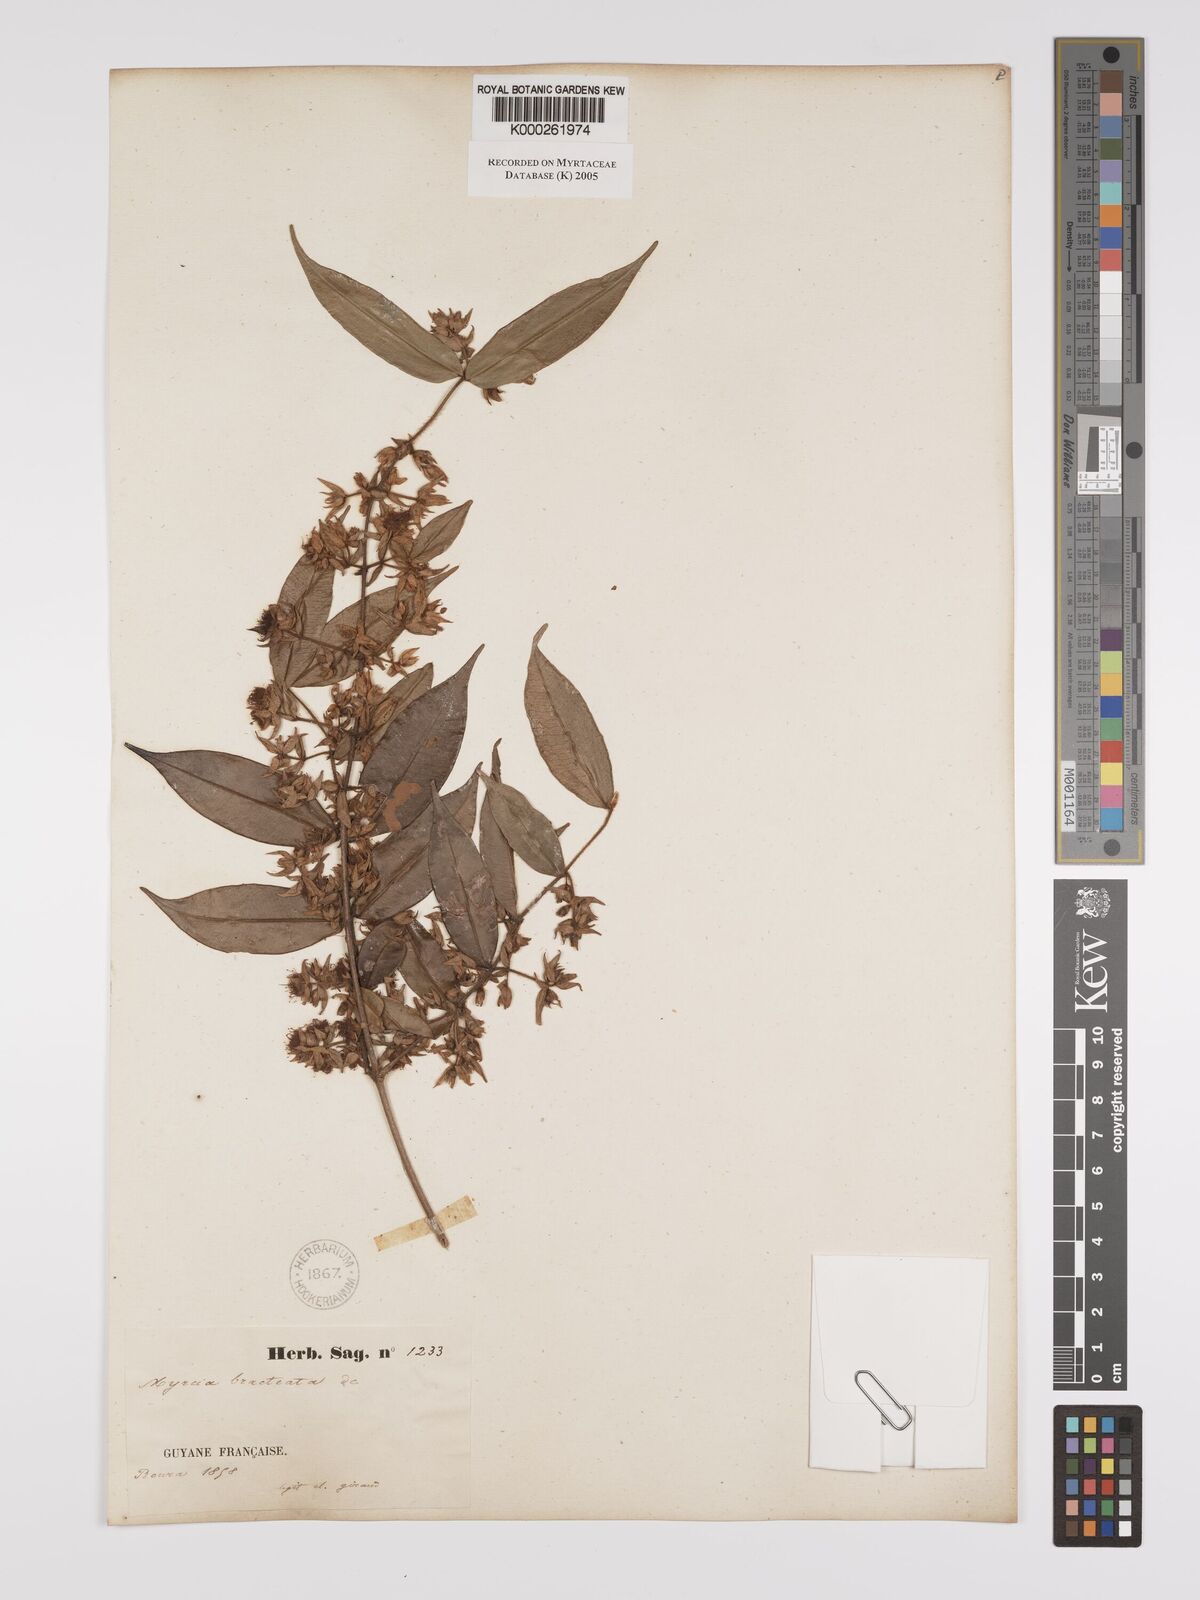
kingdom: Plantae
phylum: Tracheophyta
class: Magnoliopsida
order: Myrtales
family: Myrtaceae
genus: Myrcia
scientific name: Myrcia bracteata
